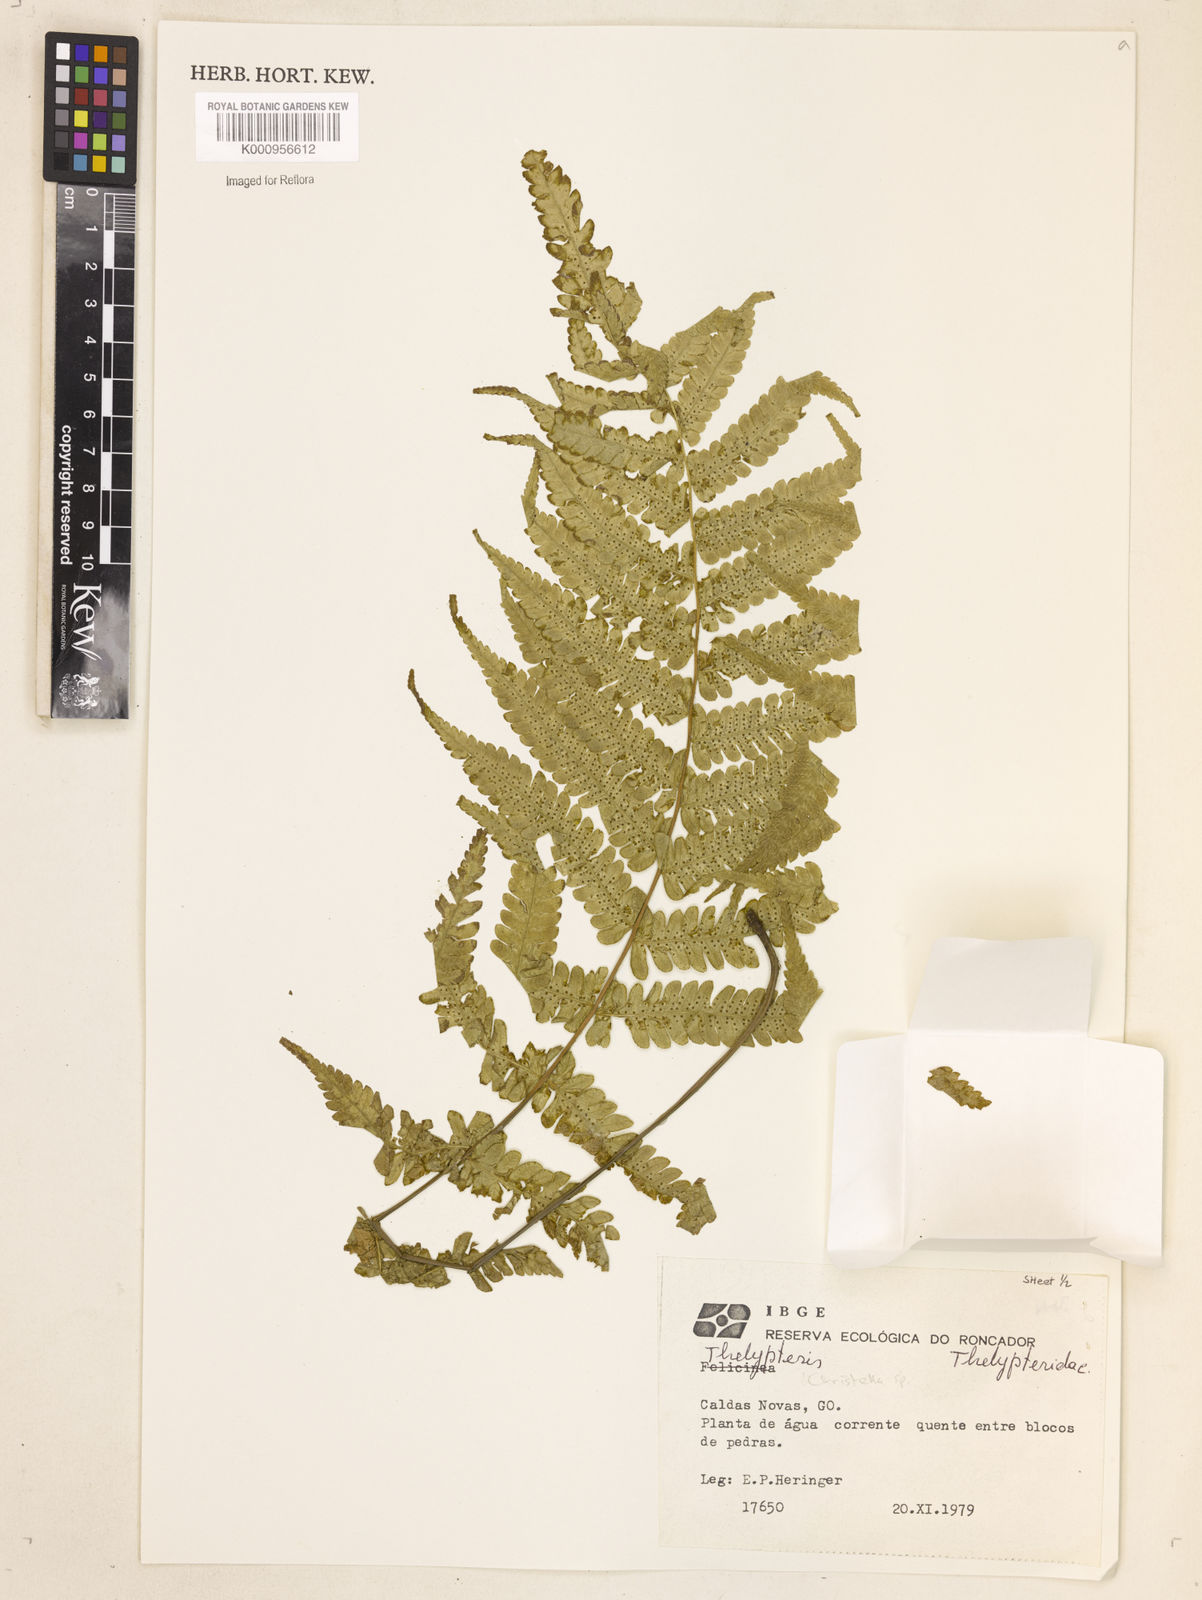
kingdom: Plantae
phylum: Tracheophyta
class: Polypodiopsida
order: Polypodiales
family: Thelypteridaceae
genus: Christella
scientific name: Christella
